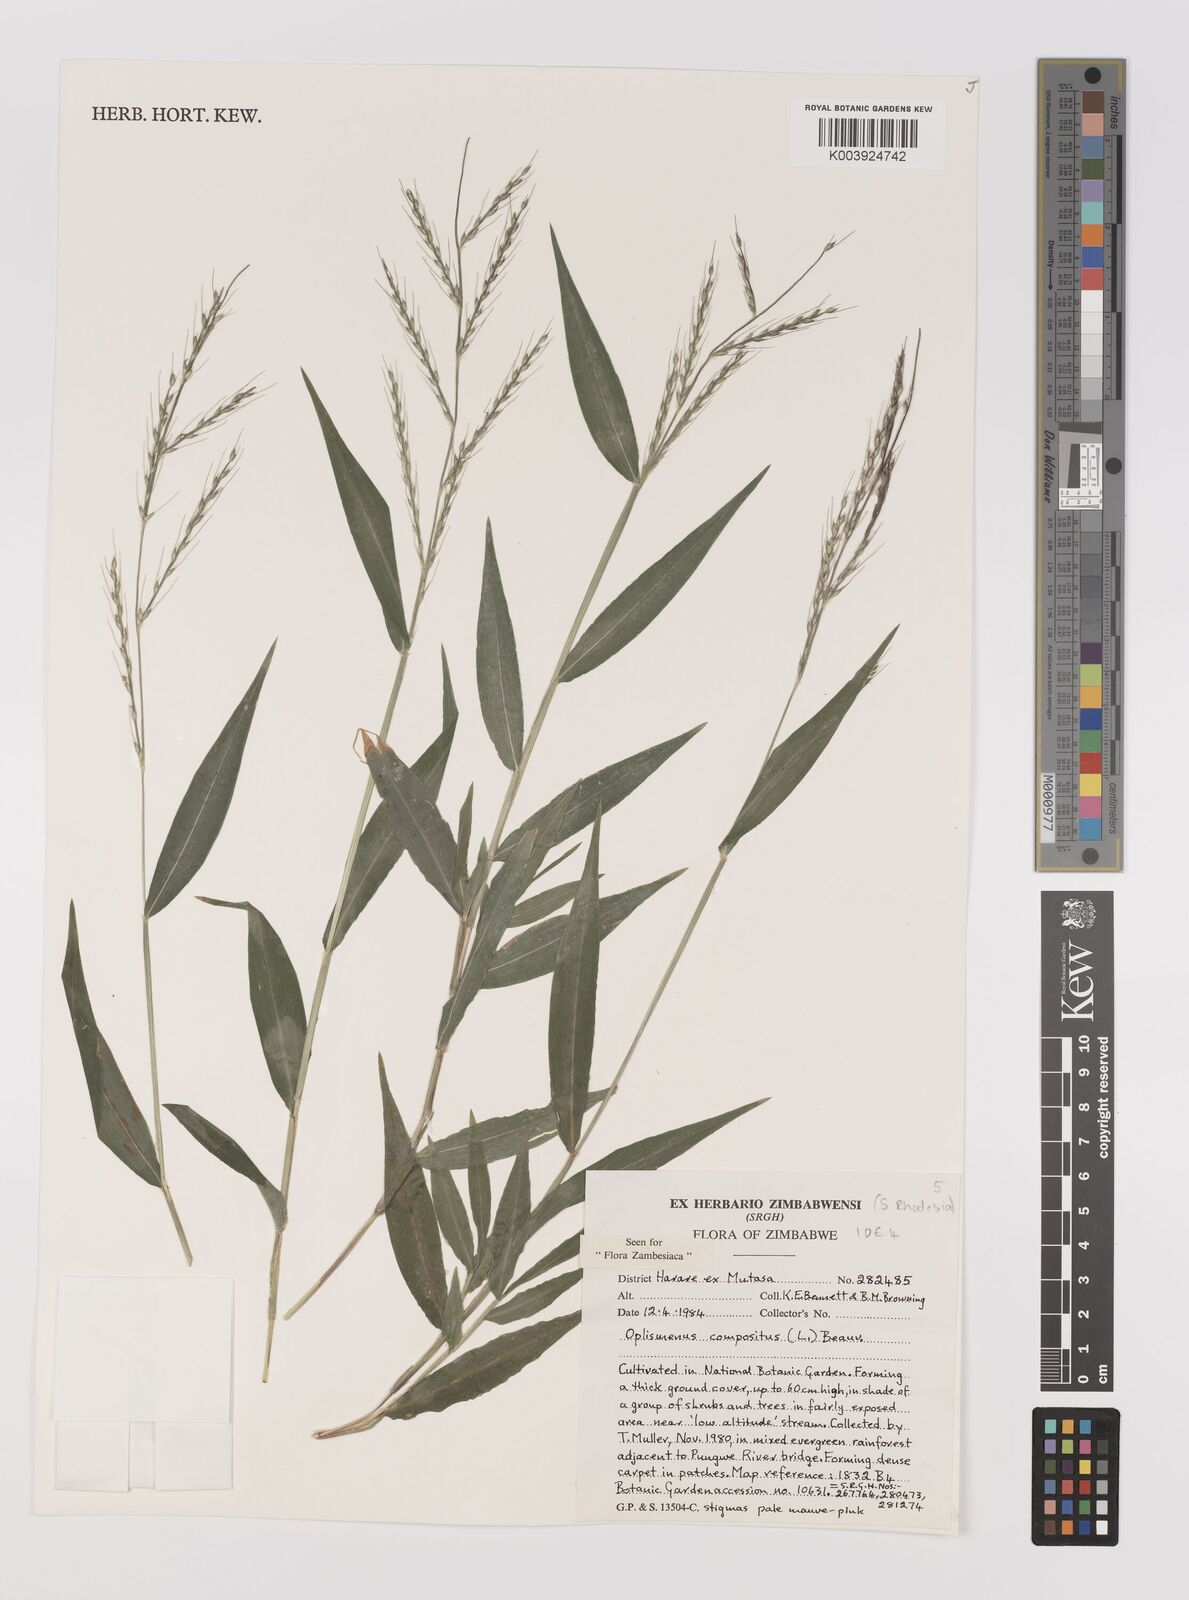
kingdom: Plantae
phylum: Tracheophyta
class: Liliopsida
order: Poales
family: Poaceae
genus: Oplismenus
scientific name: Oplismenus compositus
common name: Running mountain grass
